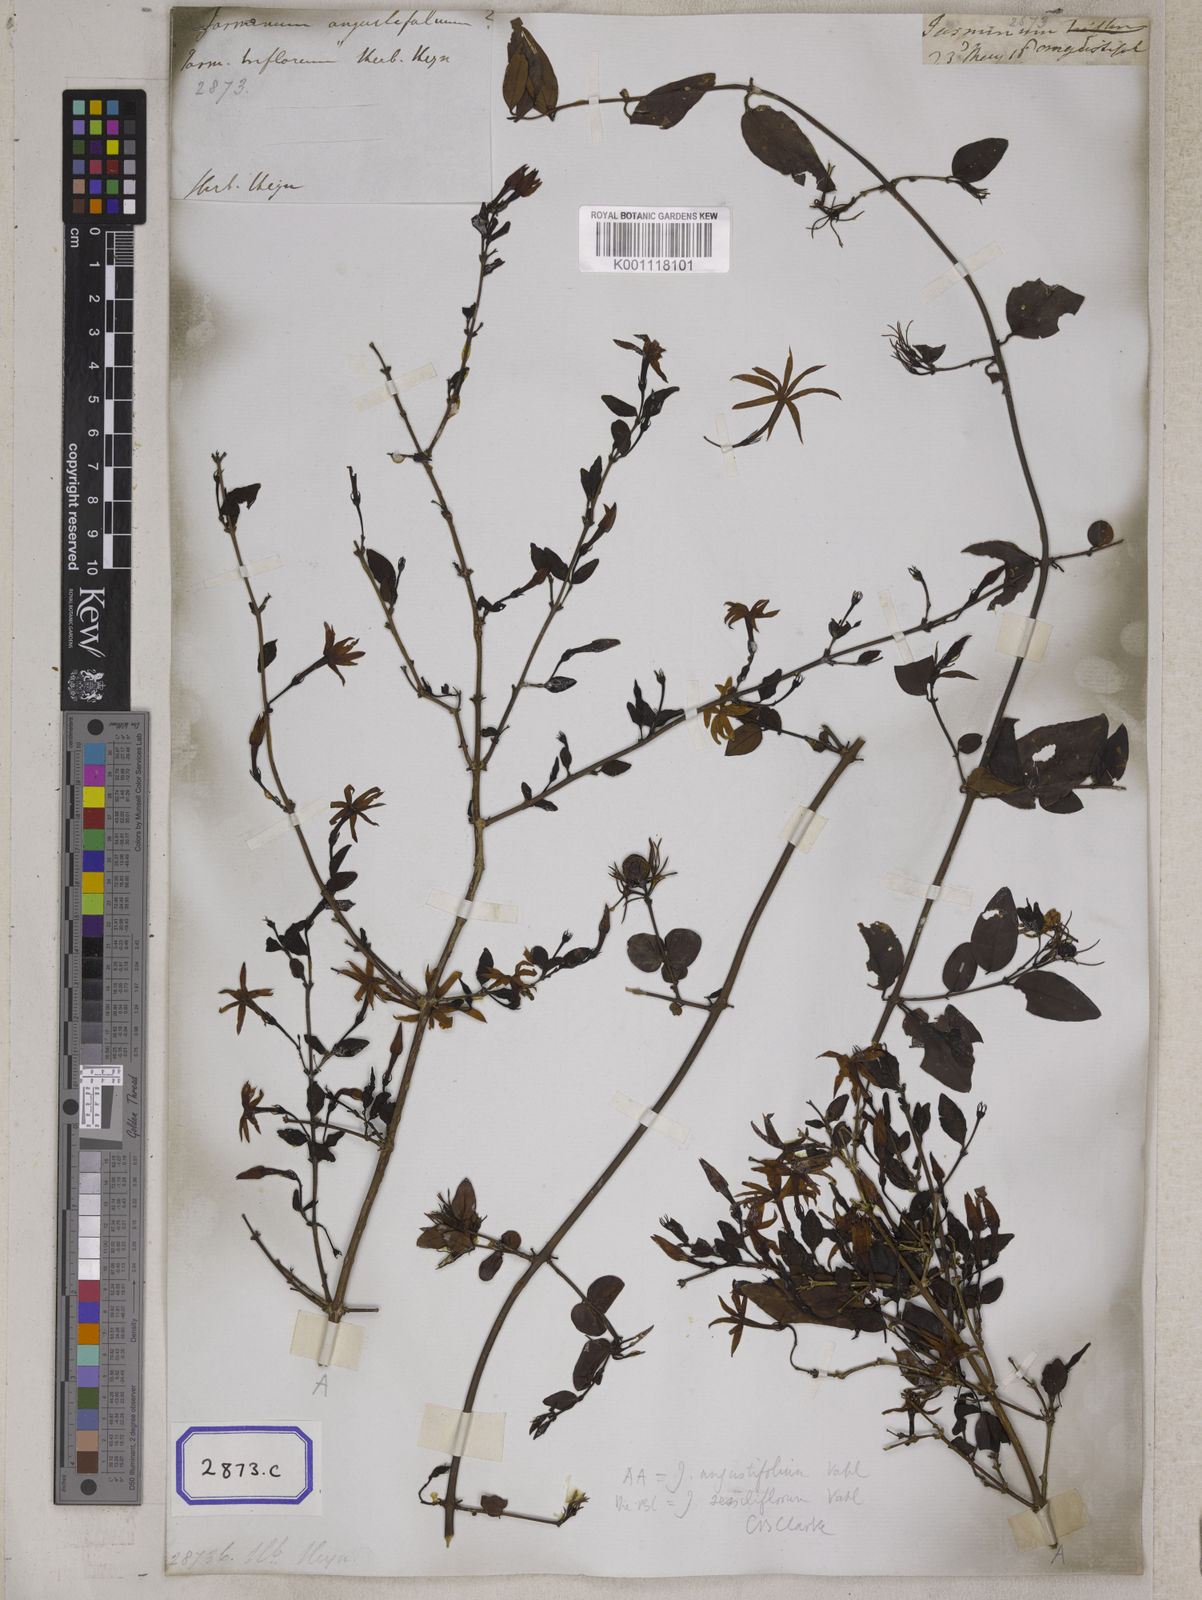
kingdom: Plantae
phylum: Tracheophyta
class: Magnoliopsida
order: Lamiales
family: Oleaceae
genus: Jasminum
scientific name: Jasminum angustifolium
